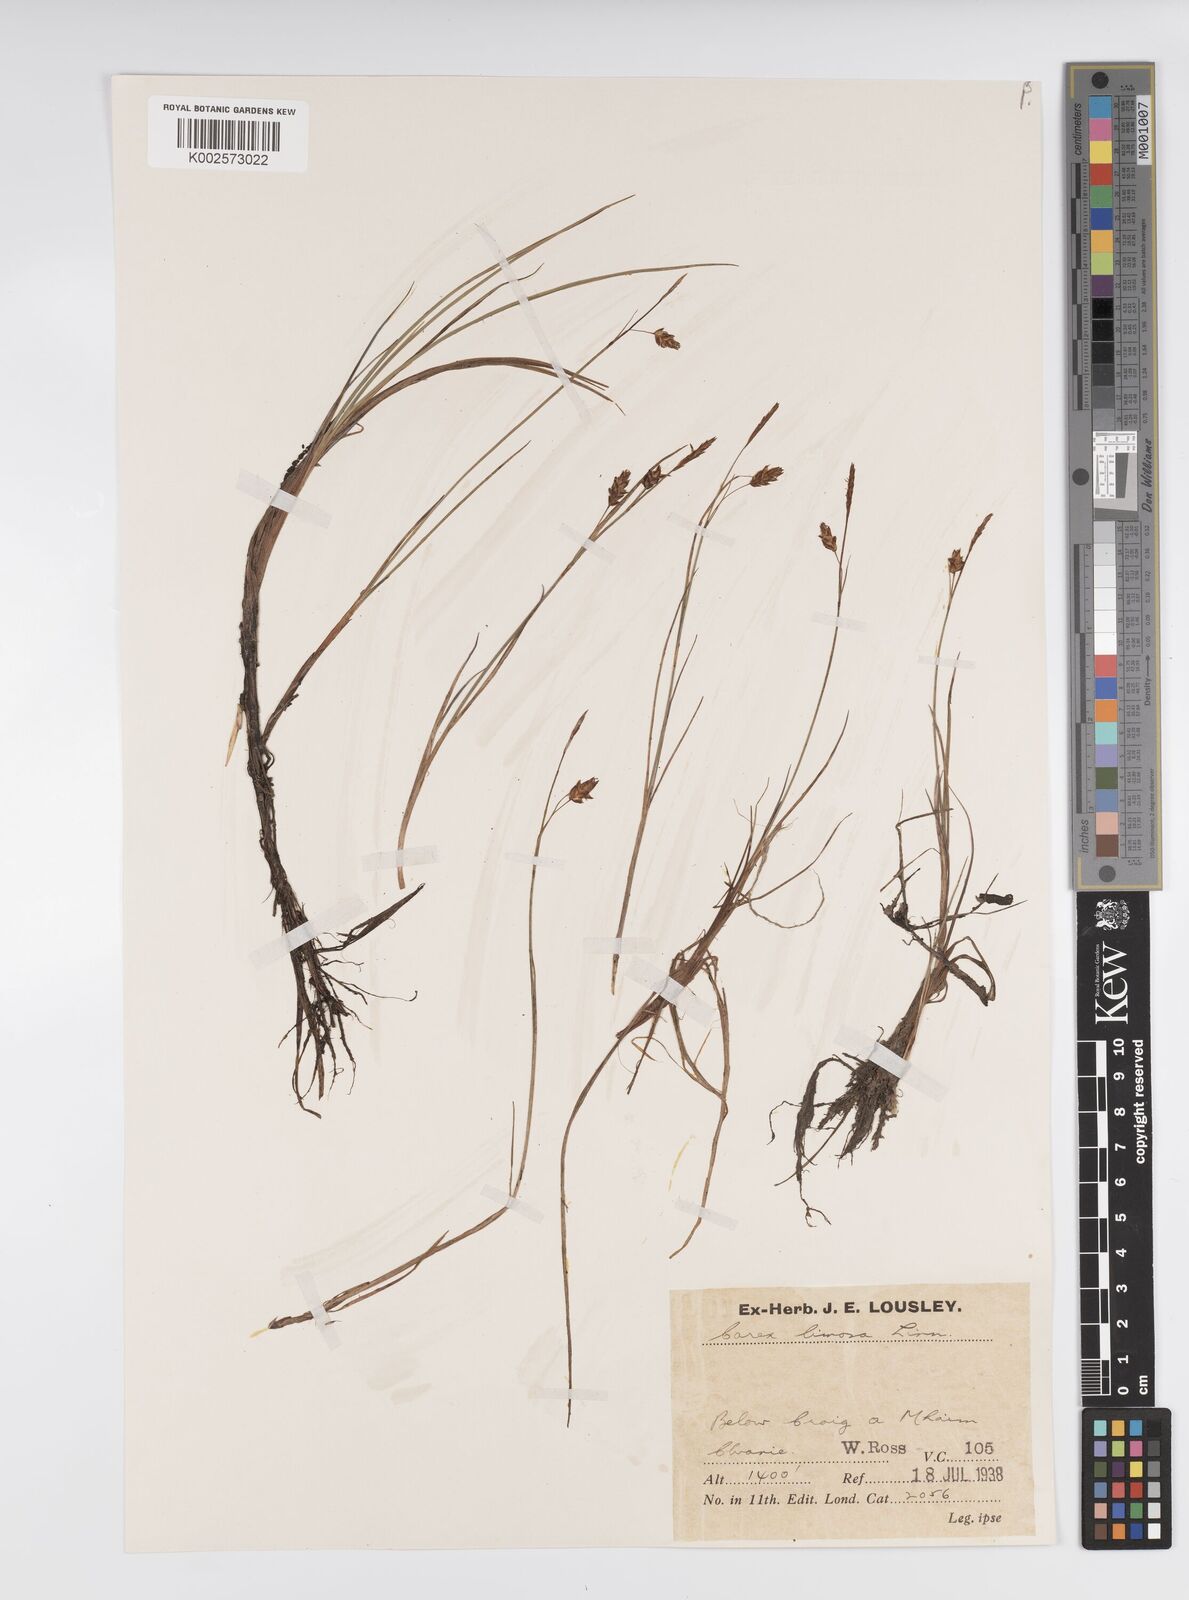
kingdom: Plantae
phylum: Tracheophyta
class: Liliopsida
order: Poales
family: Cyperaceae
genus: Carex
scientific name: Carex limosa
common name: Bog sedge
